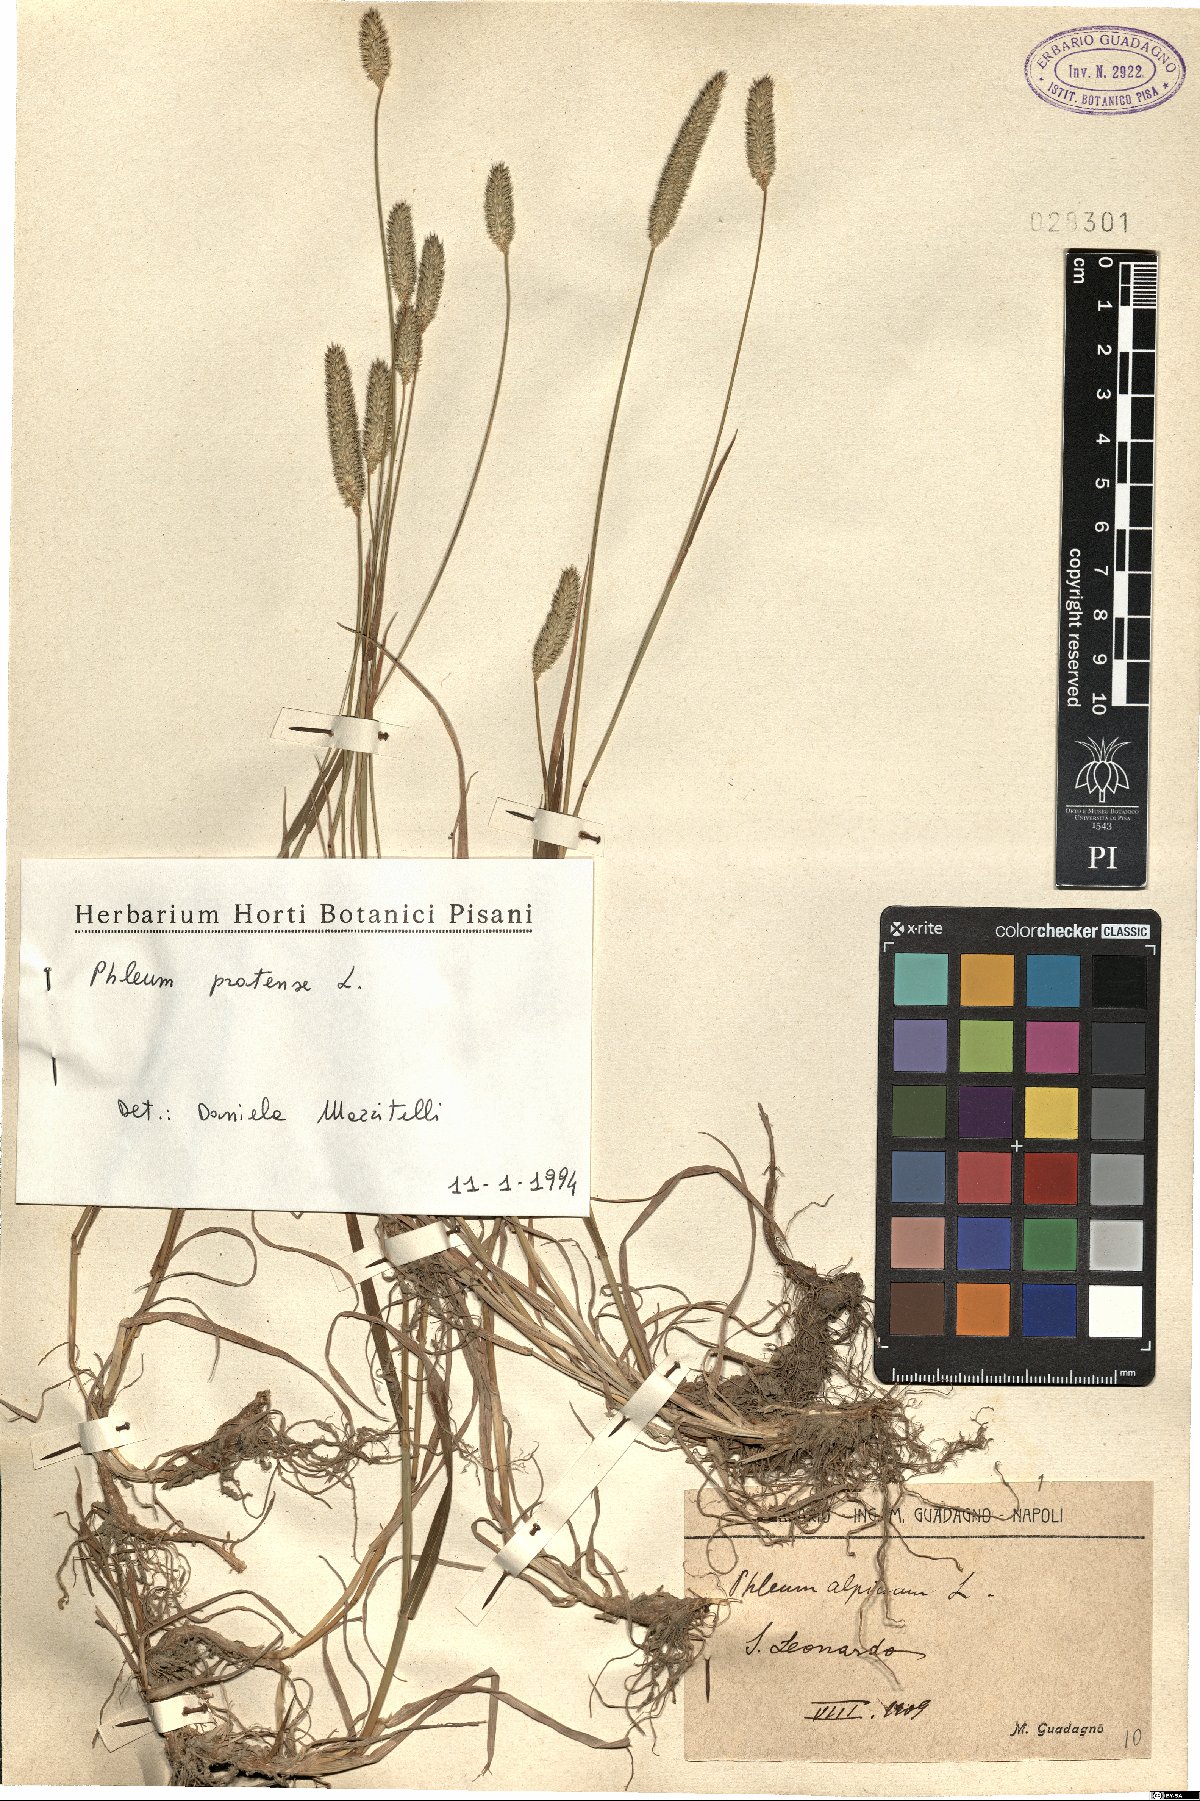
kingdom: Plantae
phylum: Tracheophyta
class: Liliopsida
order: Poales
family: Poaceae
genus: Phleum
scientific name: Phleum pratense
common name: Timothy grass
